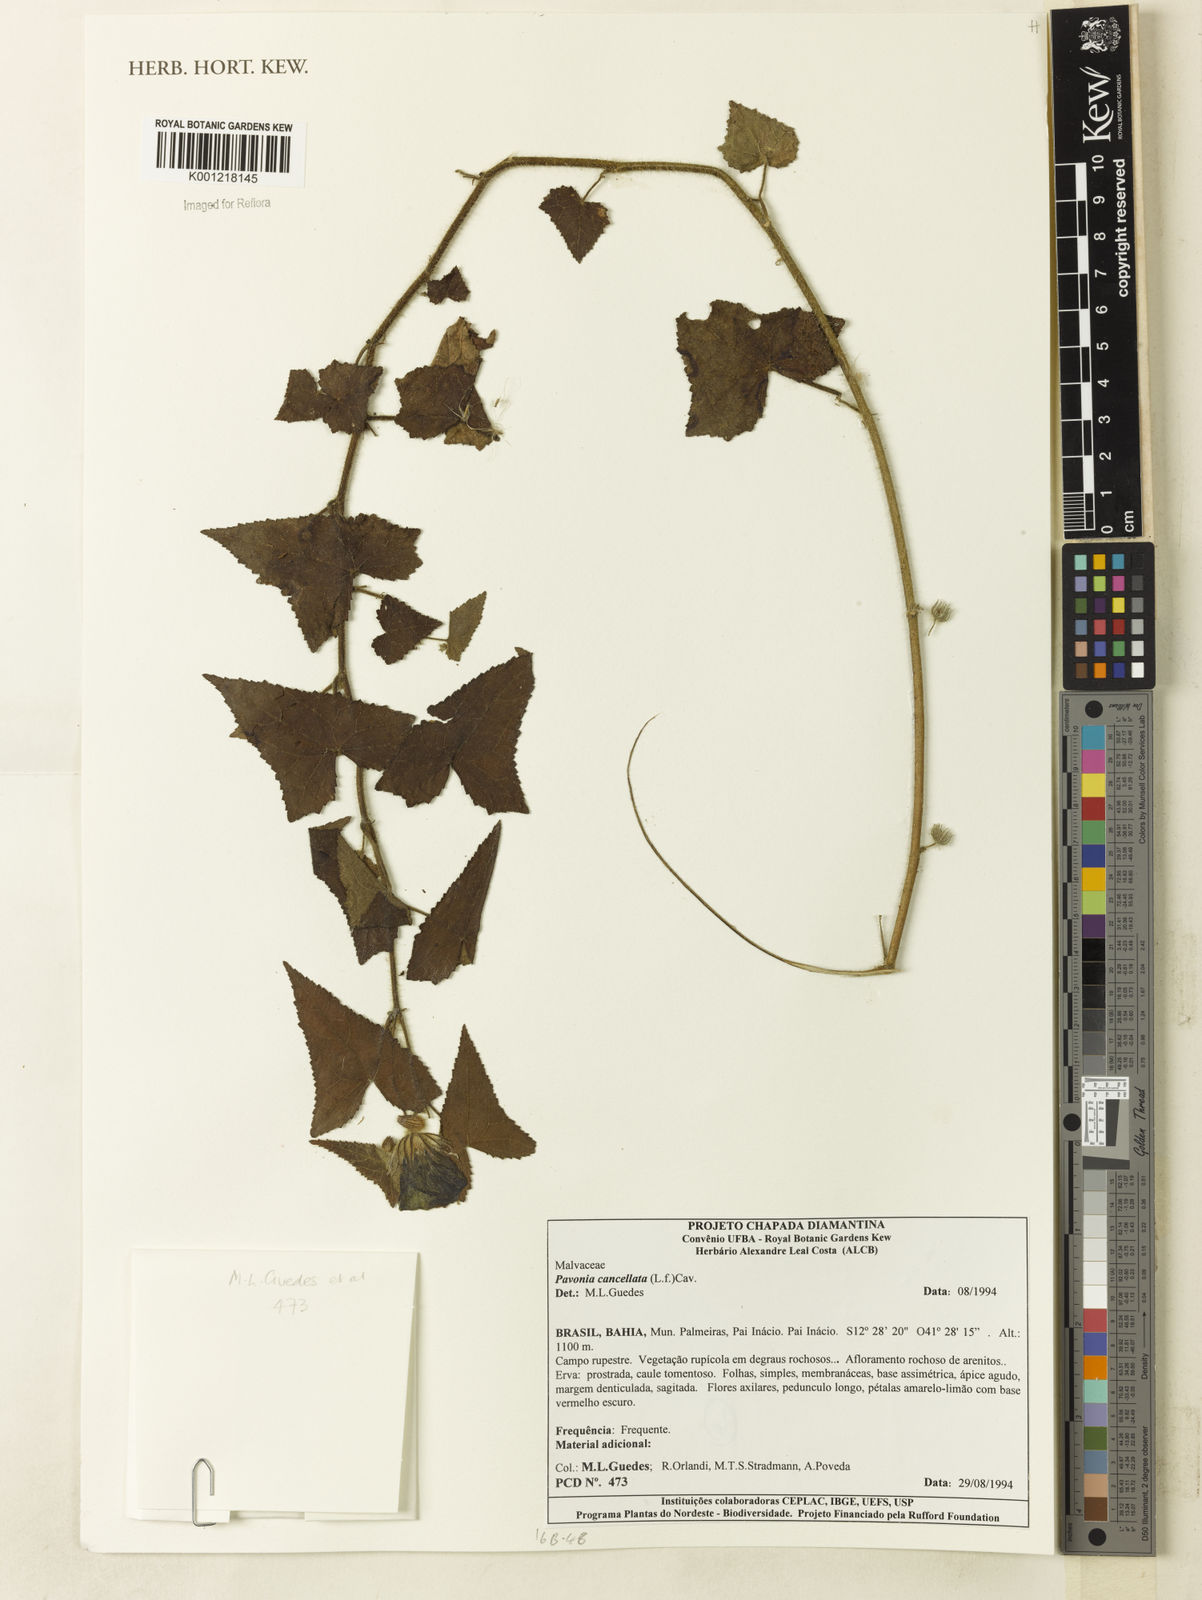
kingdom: Plantae
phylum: Tracheophyta
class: Magnoliopsida
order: Malvales
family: Malvaceae
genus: Pavonia
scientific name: Pavonia cancellata
